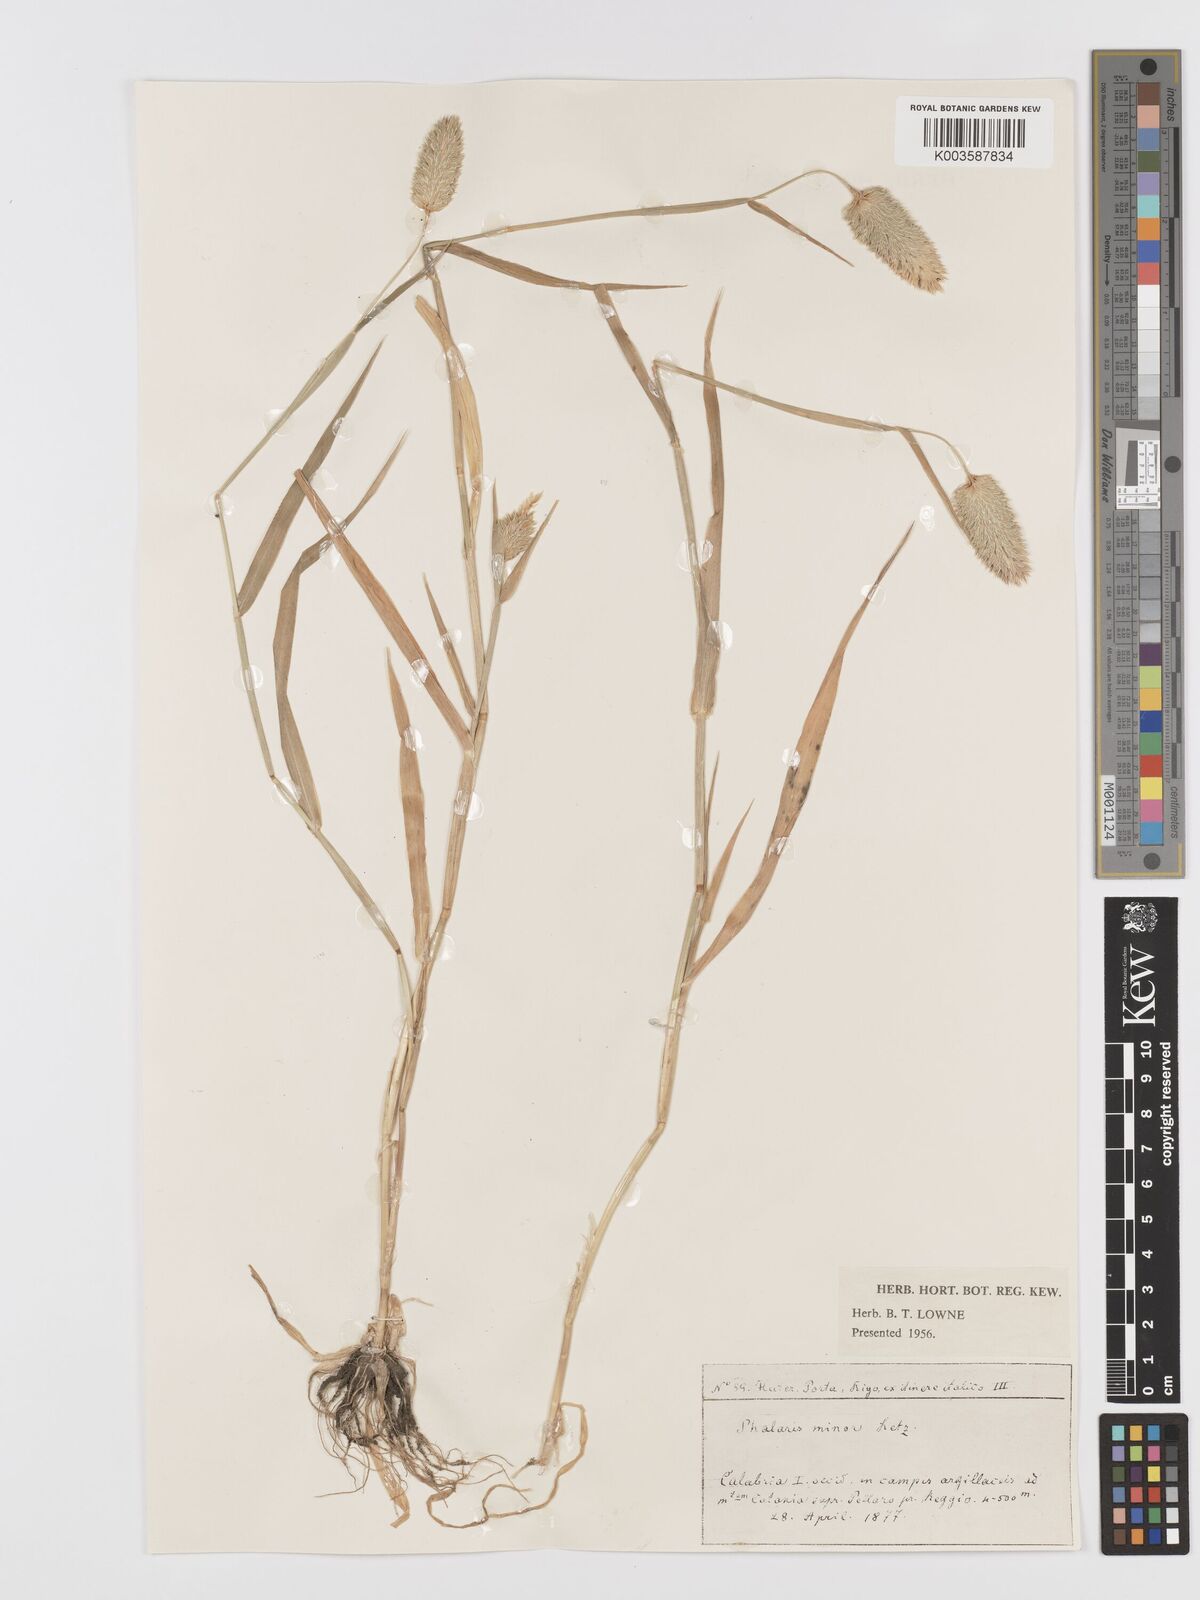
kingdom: Plantae
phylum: Tracheophyta
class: Liliopsida
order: Poales
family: Poaceae
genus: Phalaris
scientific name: Phalaris minor
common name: Littleseed canarygrass
